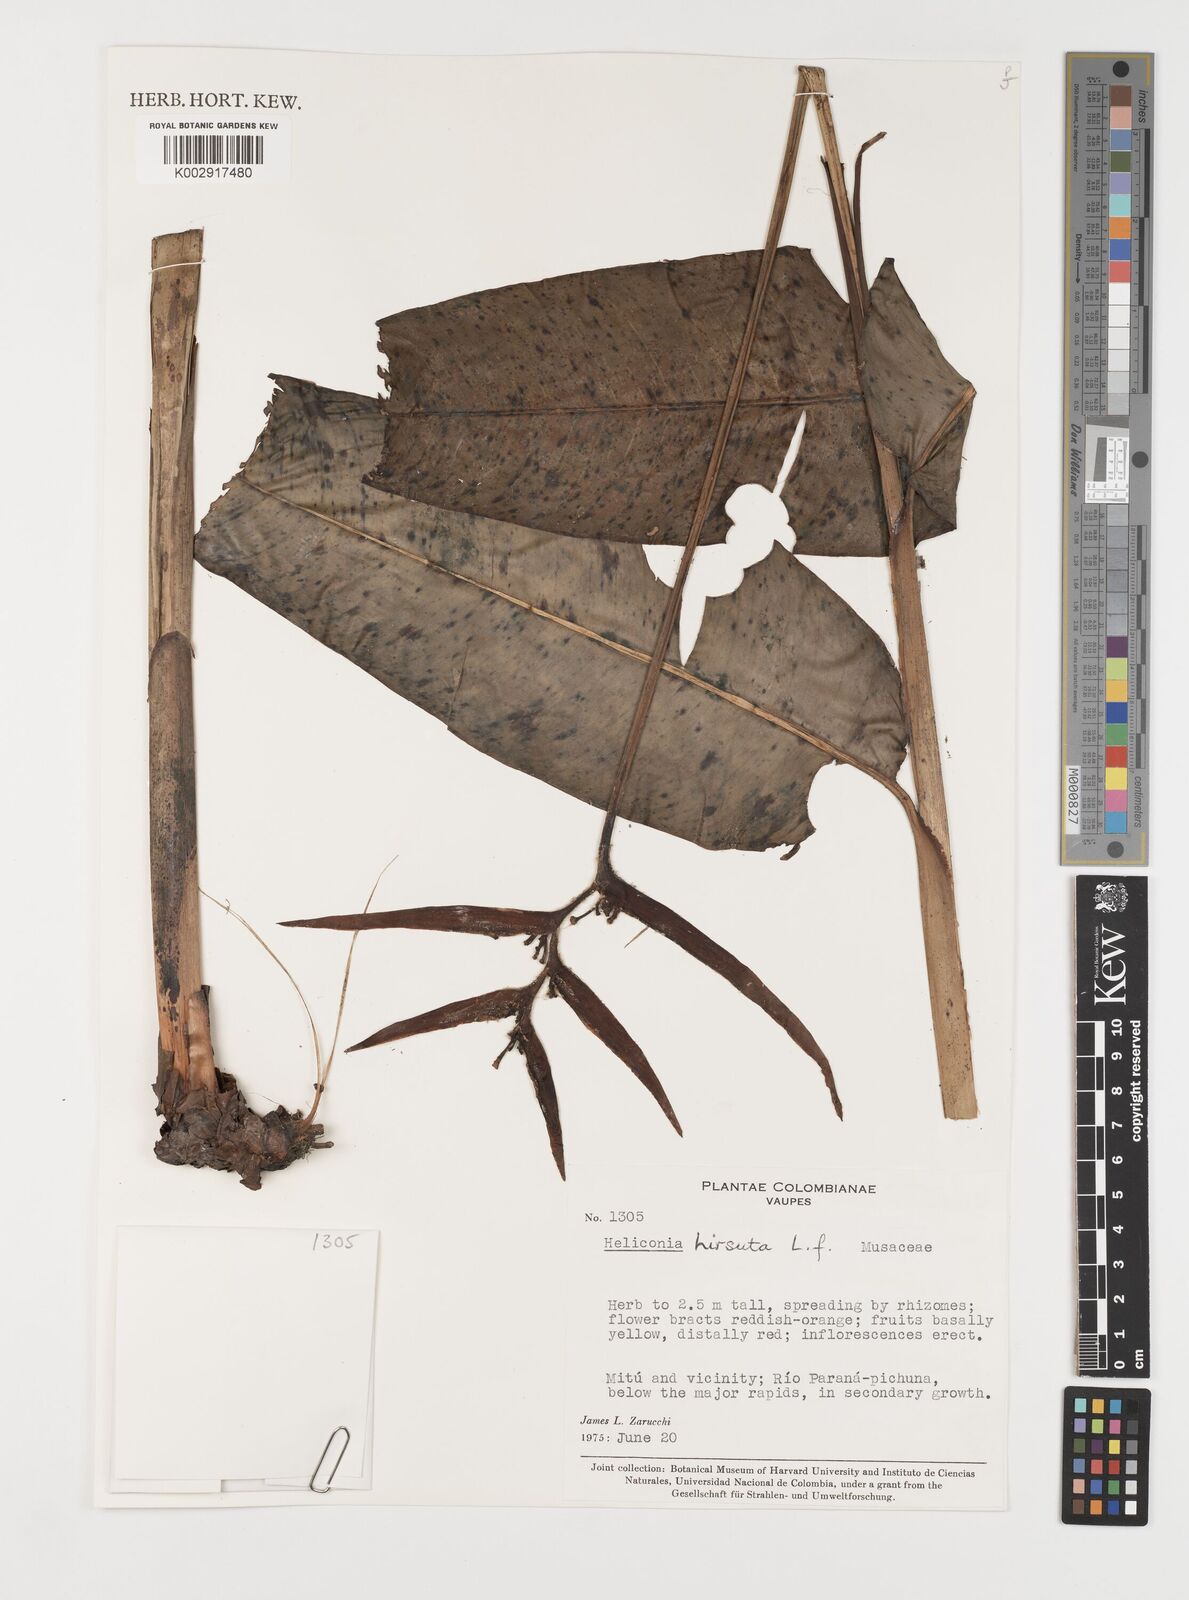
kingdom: Plantae
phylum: Tracheophyta
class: Liliopsida
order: Zingiberales
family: Heliconiaceae
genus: Heliconia
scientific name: Heliconia schiedeana
